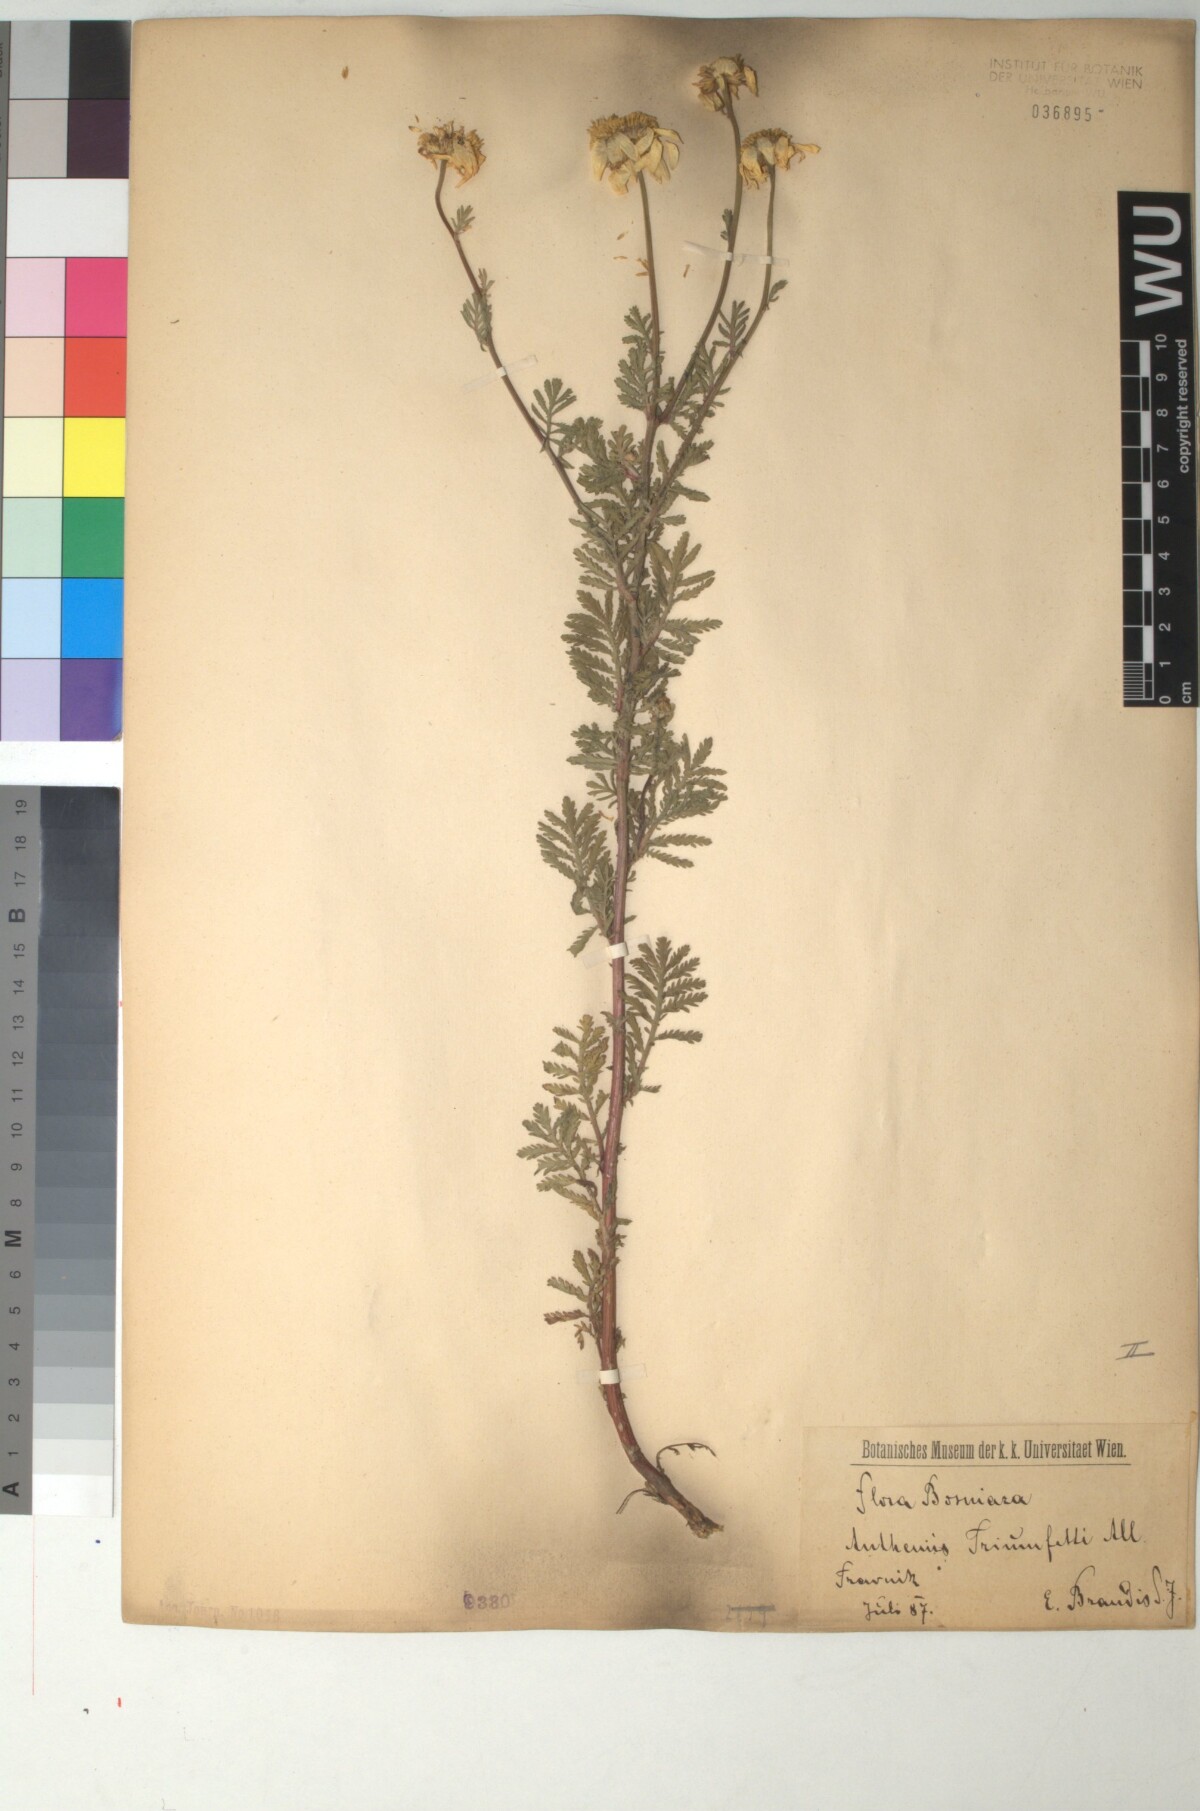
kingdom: Plantae
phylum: Tracheophyta
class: Magnoliopsida
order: Asterales
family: Asteraceae
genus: Cota
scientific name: Cota triumfetti
